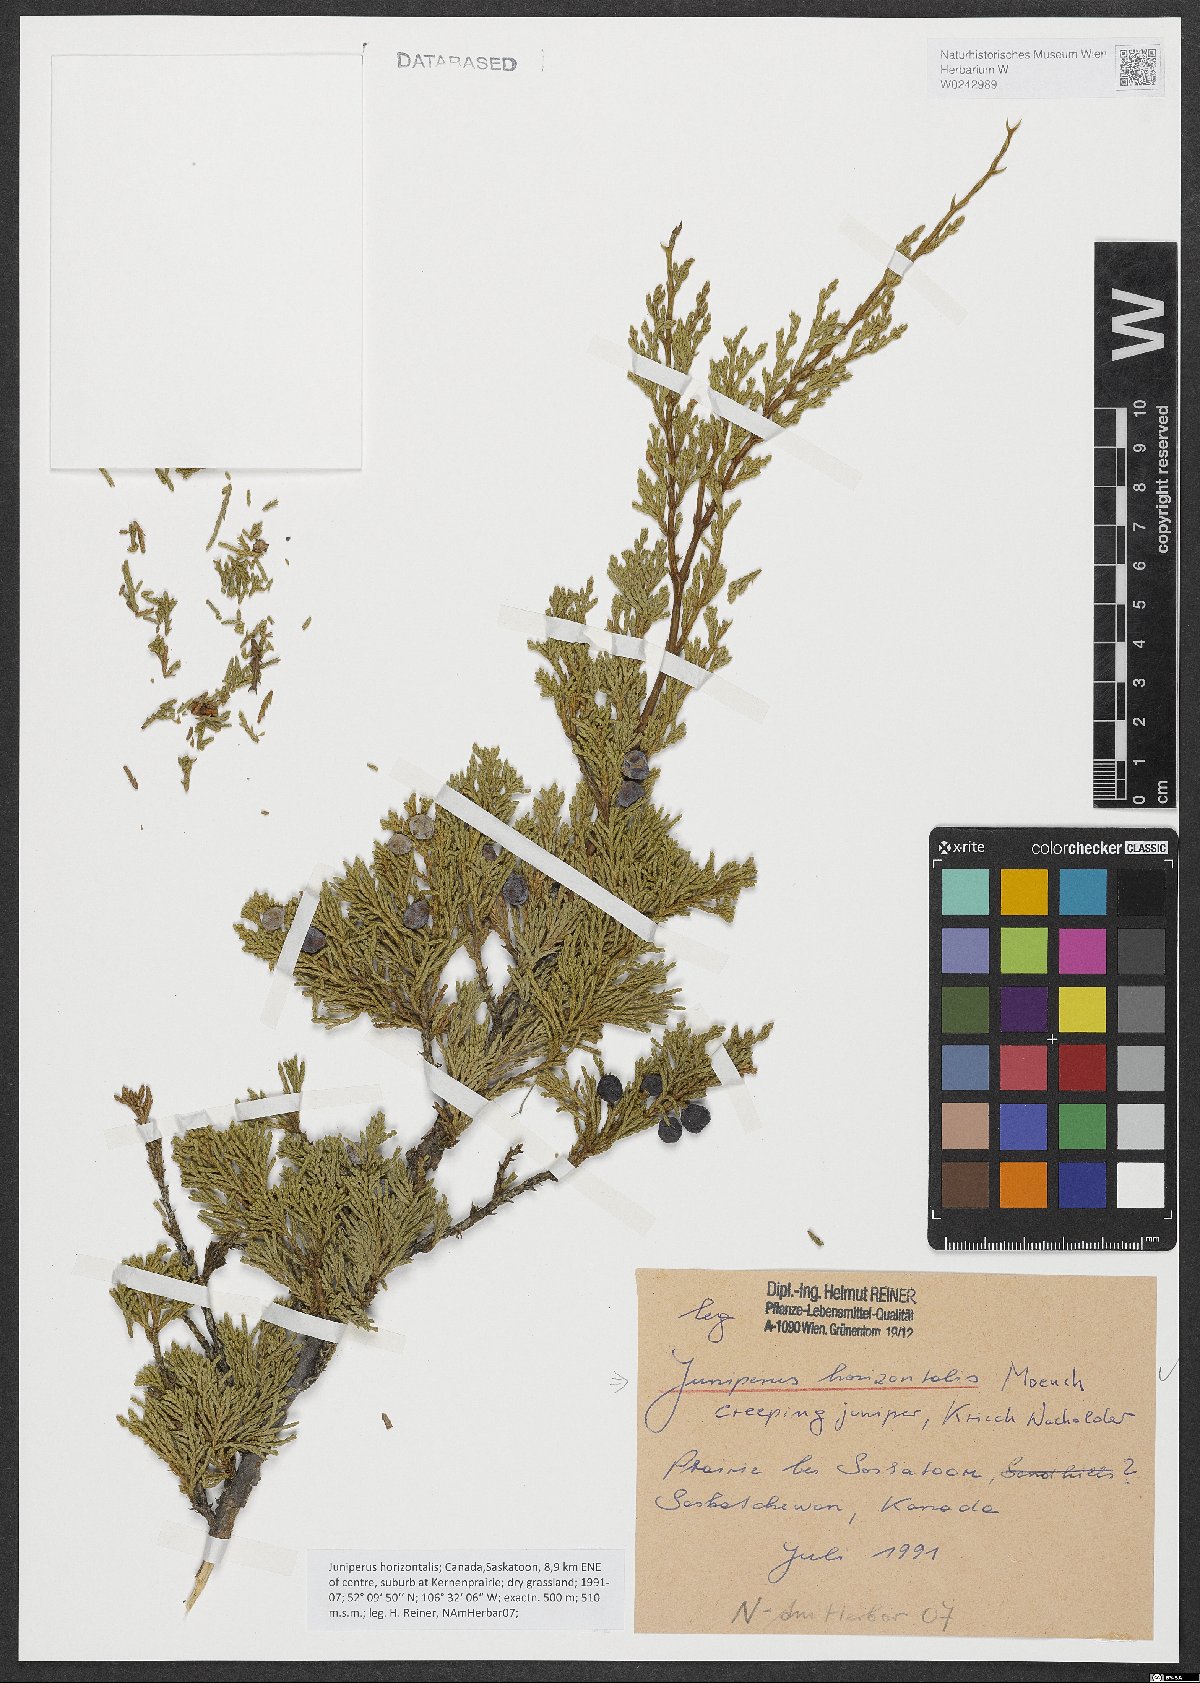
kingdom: Plantae
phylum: Tracheophyta
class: Pinopsida
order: Pinales
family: Cupressaceae
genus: Juniperus
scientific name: Juniperus horizontalis
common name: Creeping juniper
